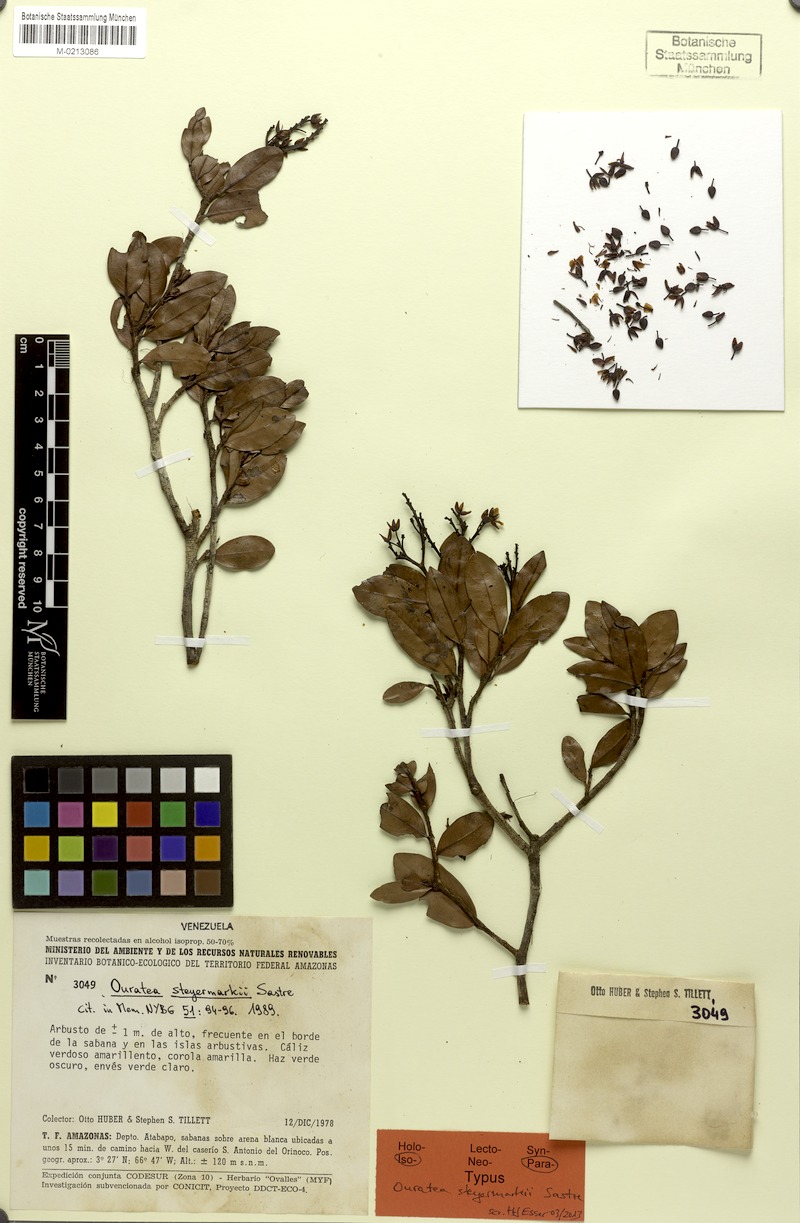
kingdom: Plantae
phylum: Tracheophyta
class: Magnoliopsida
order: Malpighiales
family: Ochnaceae
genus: Ouratea
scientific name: Ouratea steyermarkii
